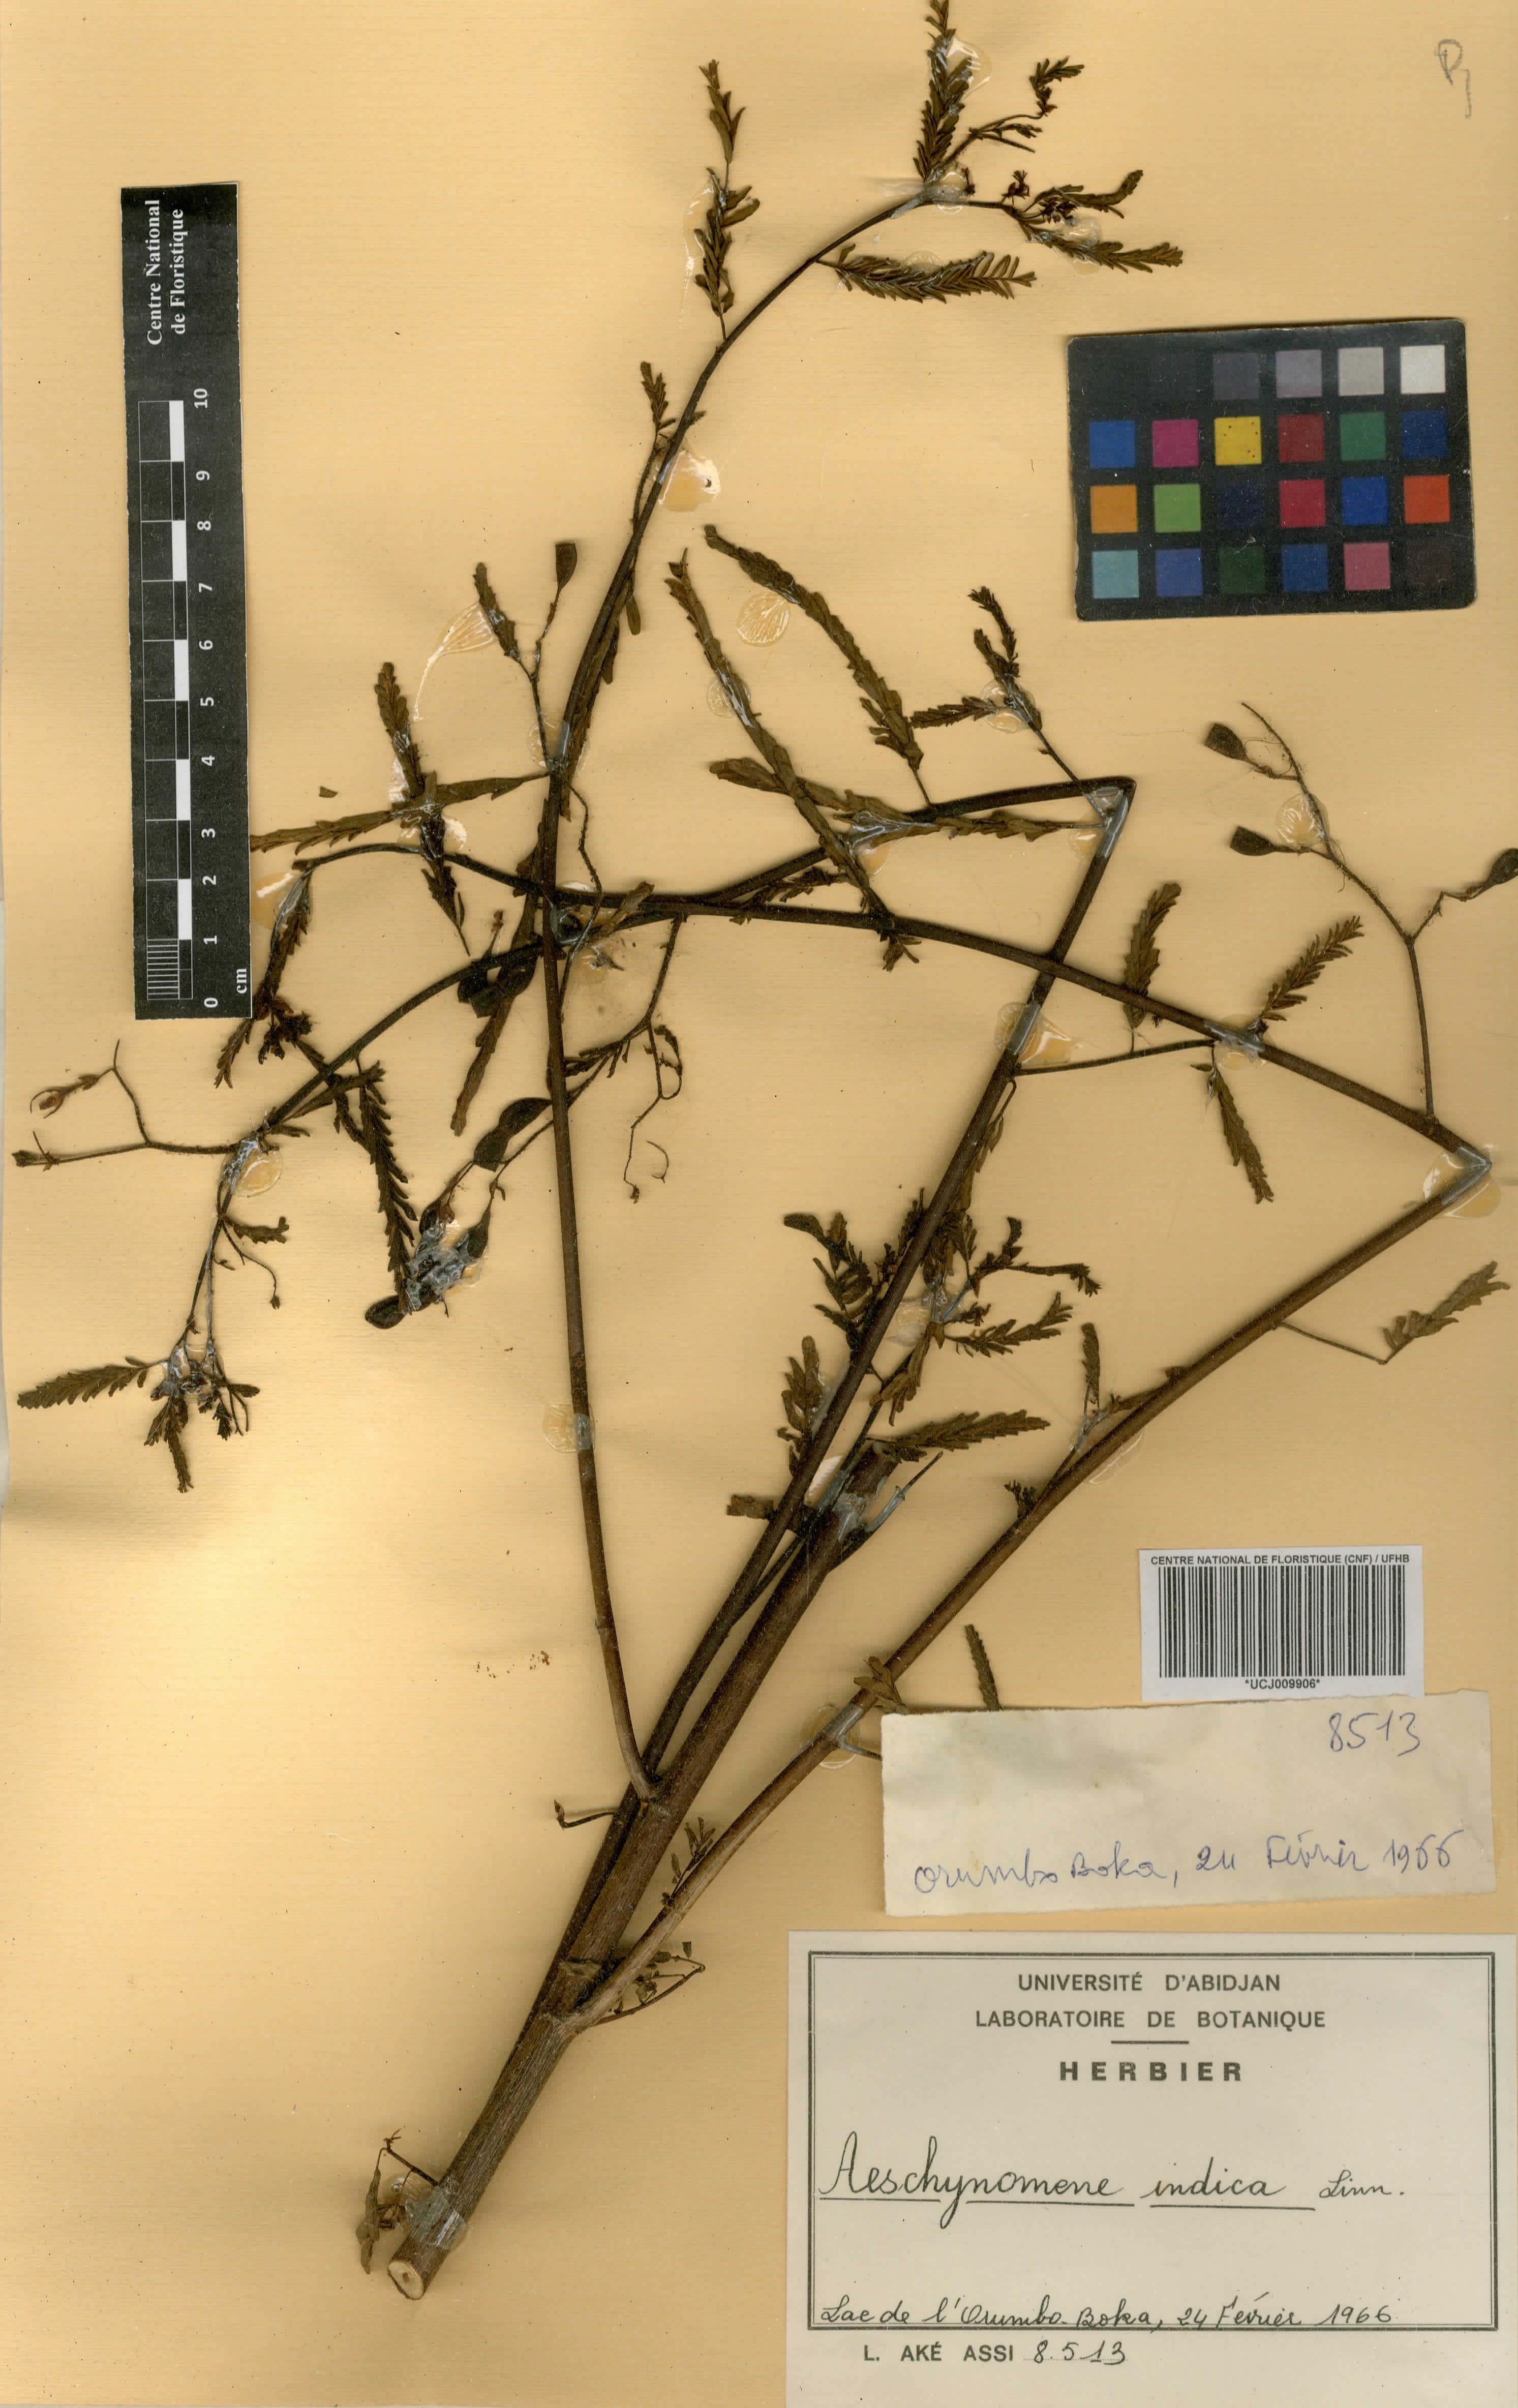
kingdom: Plantae
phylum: Tracheophyta
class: Magnoliopsida
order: Fabales
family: Fabaceae
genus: Aeschynomene
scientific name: Aeschynomene indica
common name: Indian jointvetch
